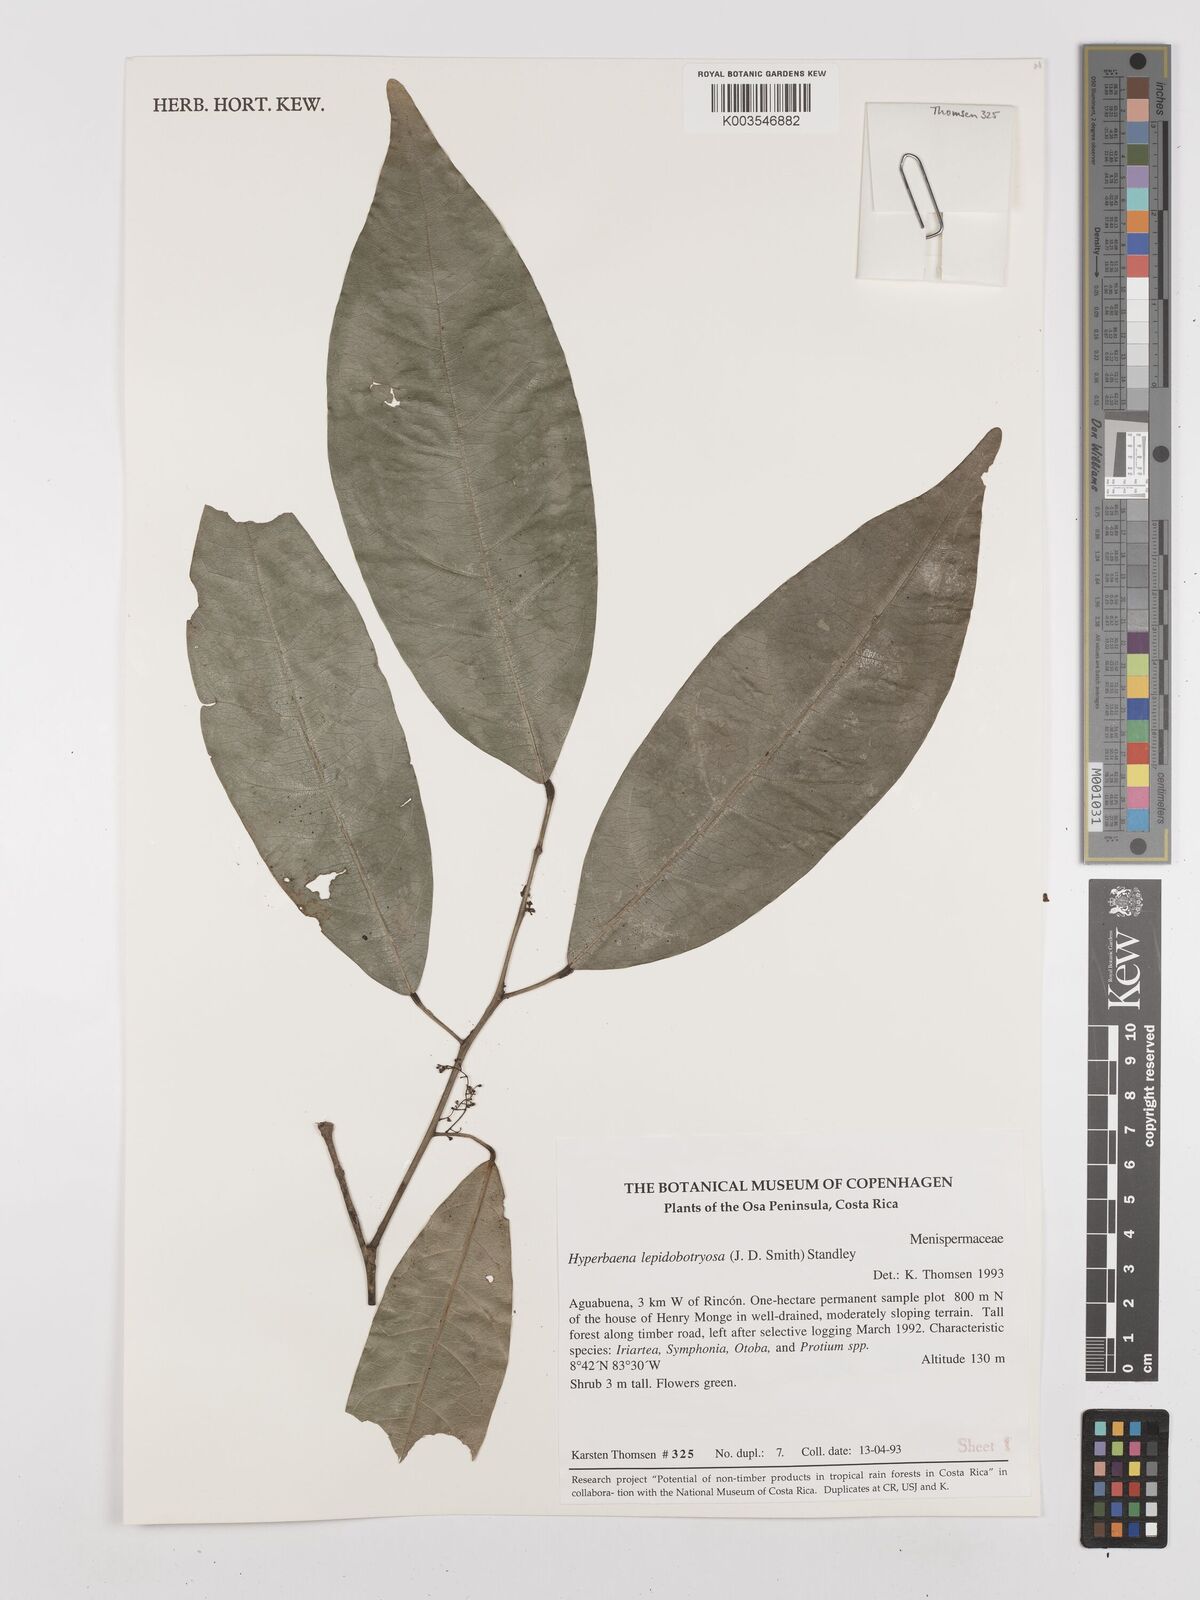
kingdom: Plantae
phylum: Tracheophyta
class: Magnoliopsida
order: Ranunculales
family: Menispermaceae
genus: Hyperbaena
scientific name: Hyperbaena leptobotryosa
